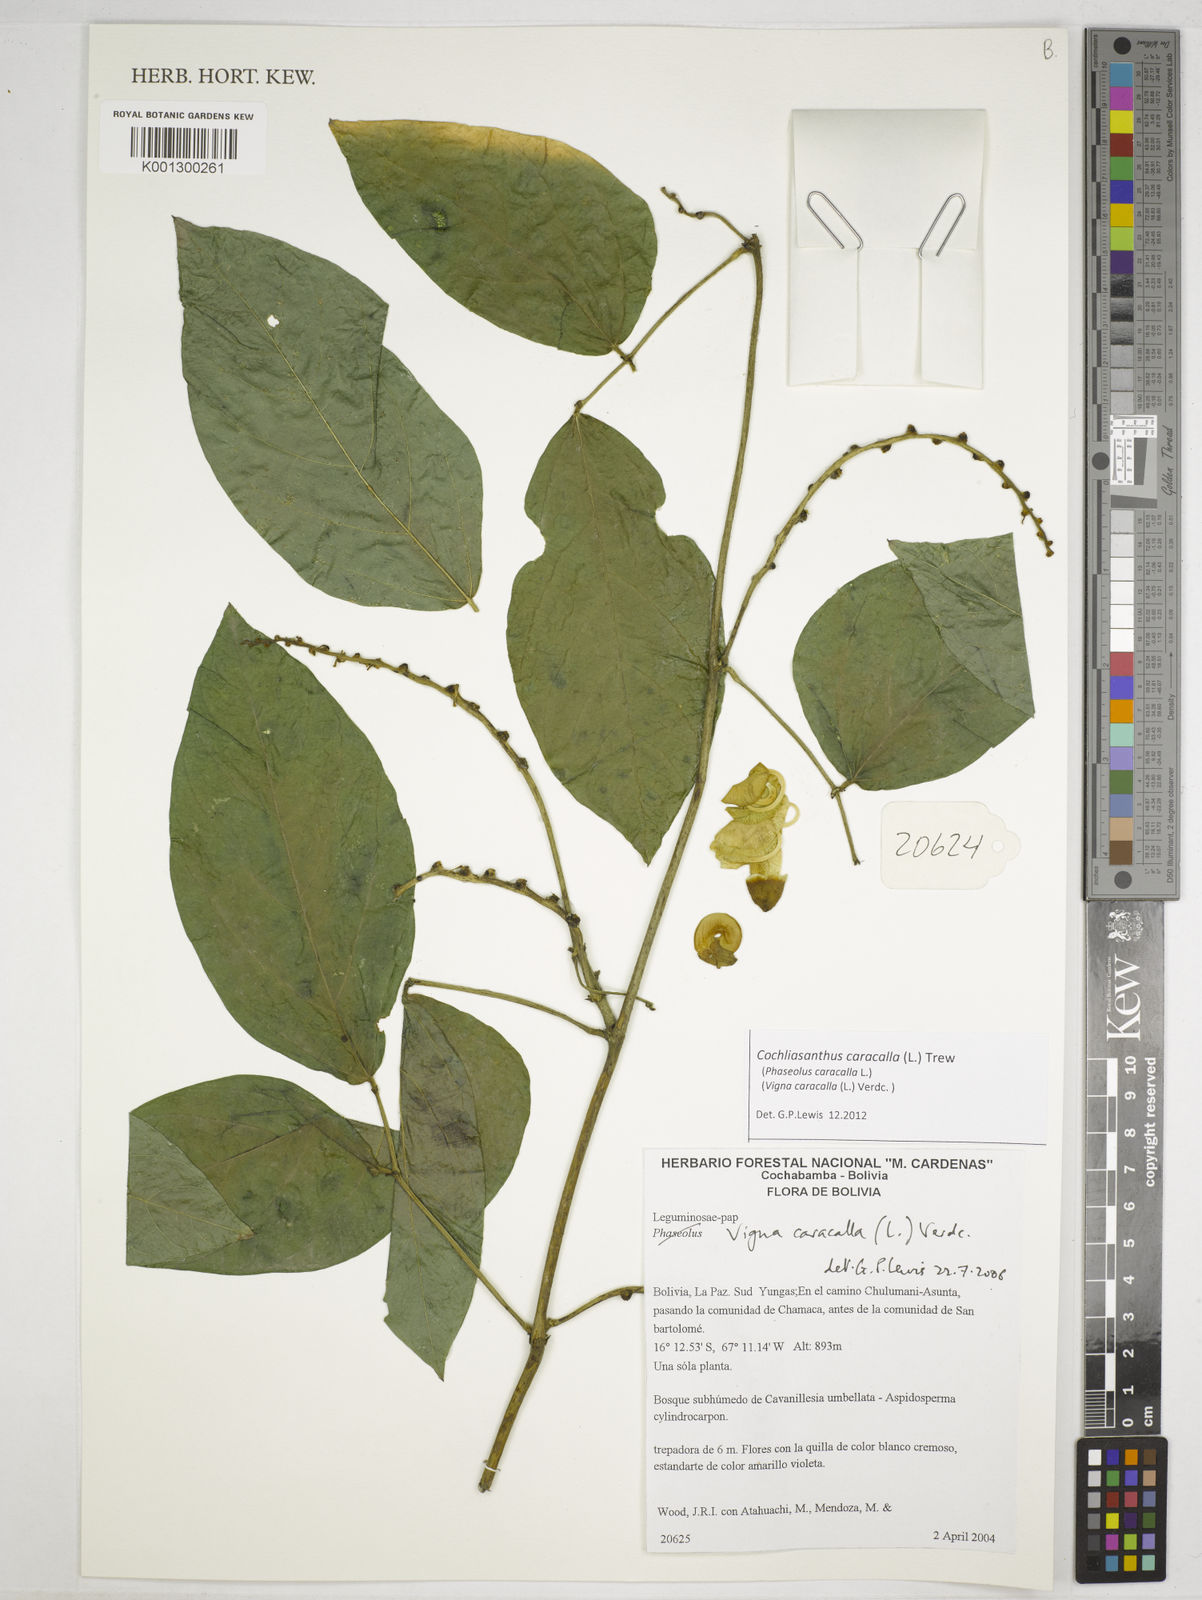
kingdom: Plantae
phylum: Tracheophyta
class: Magnoliopsida
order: Fabales
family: Fabaceae
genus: Cochliasanthus
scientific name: Cochliasanthus caracalla
